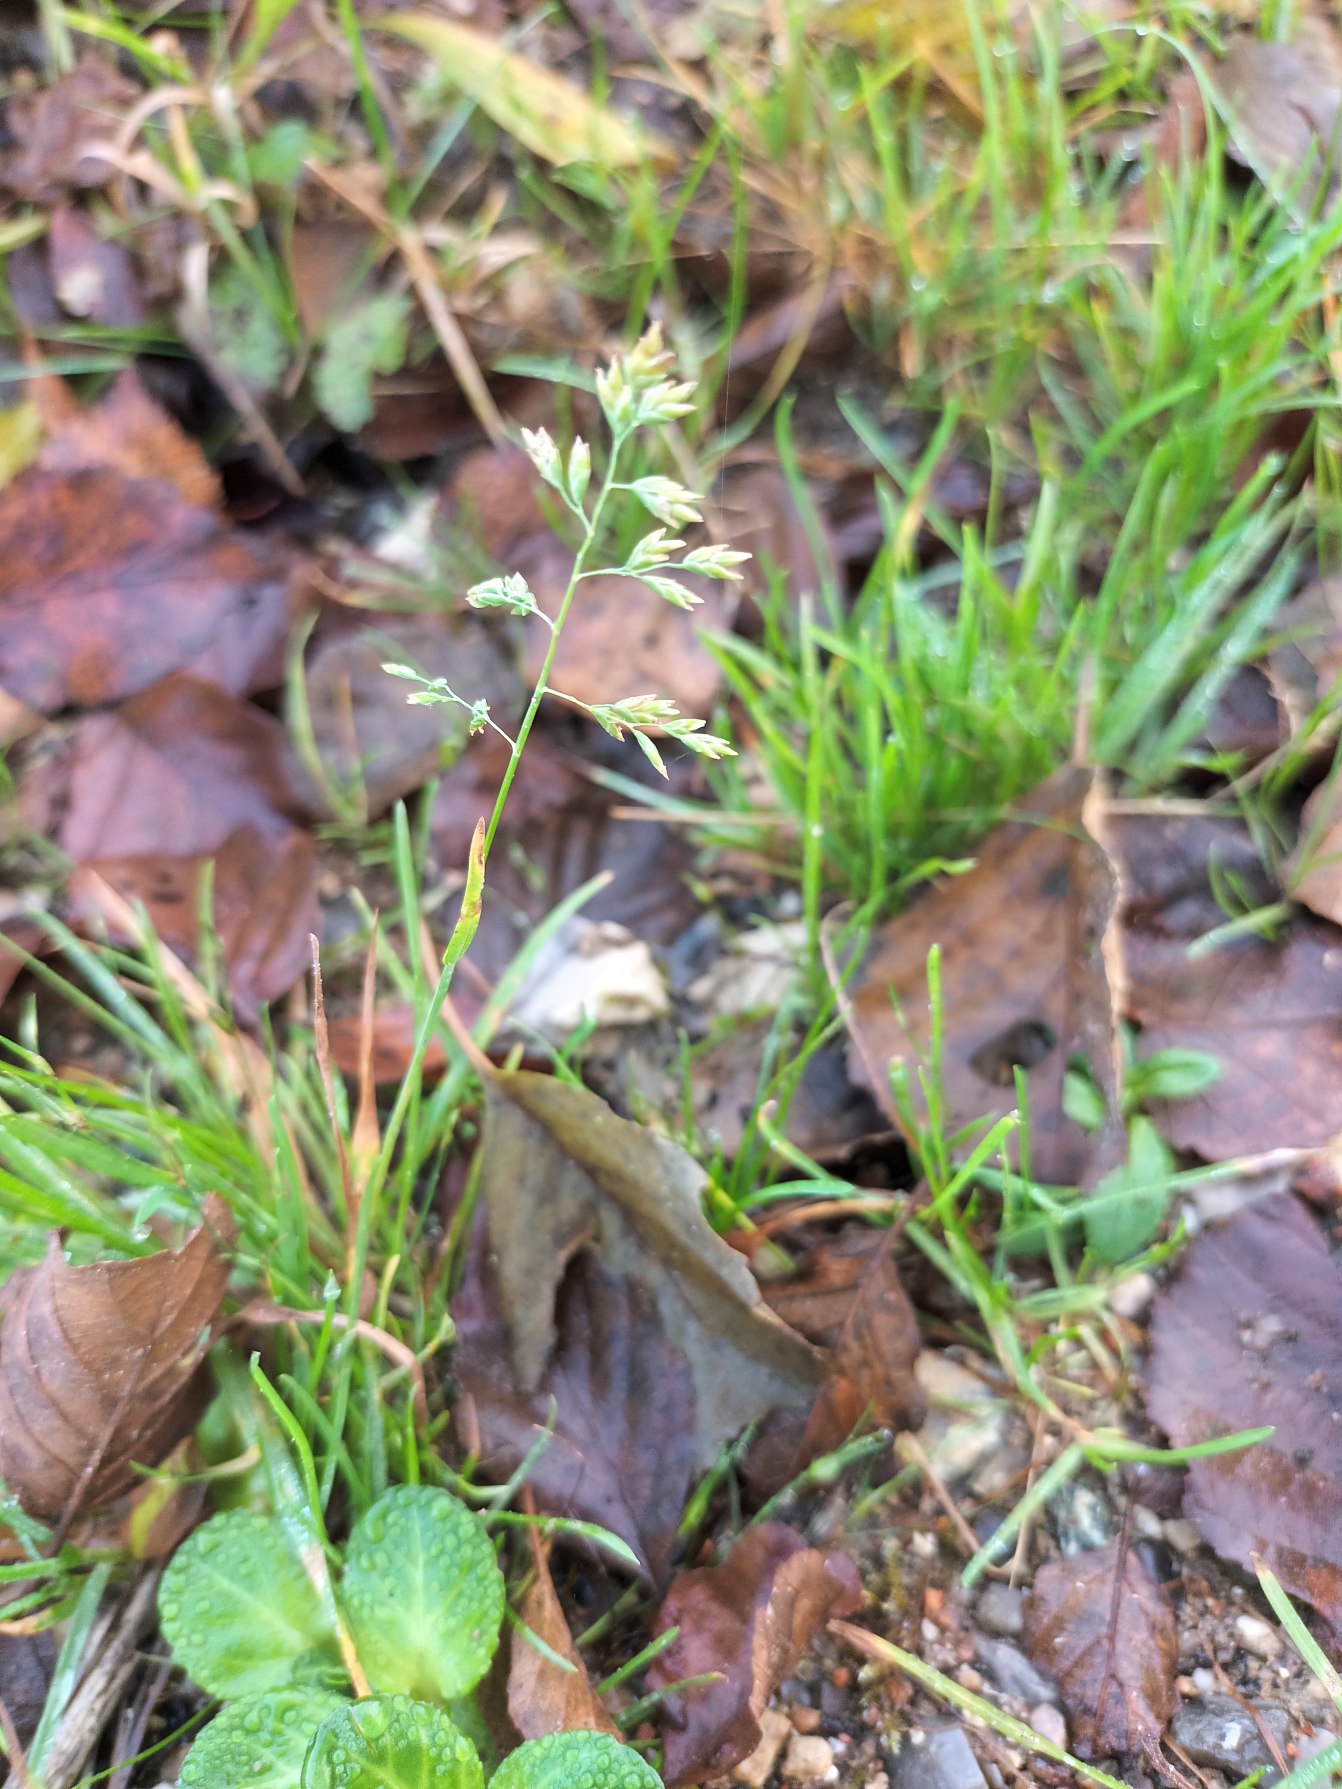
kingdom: Plantae
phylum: Tracheophyta
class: Liliopsida
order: Poales
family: Poaceae
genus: Poa
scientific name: Poa annua
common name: Enårig rapgræs
